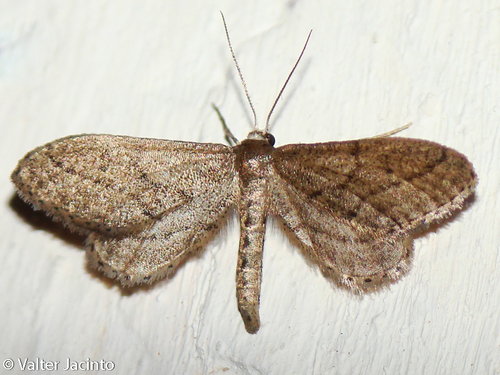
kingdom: Animalia
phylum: Arthropoda
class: Insecta
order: Lepidoptera
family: Geometridae
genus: Idaea
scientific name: Idaea carvalhoi
